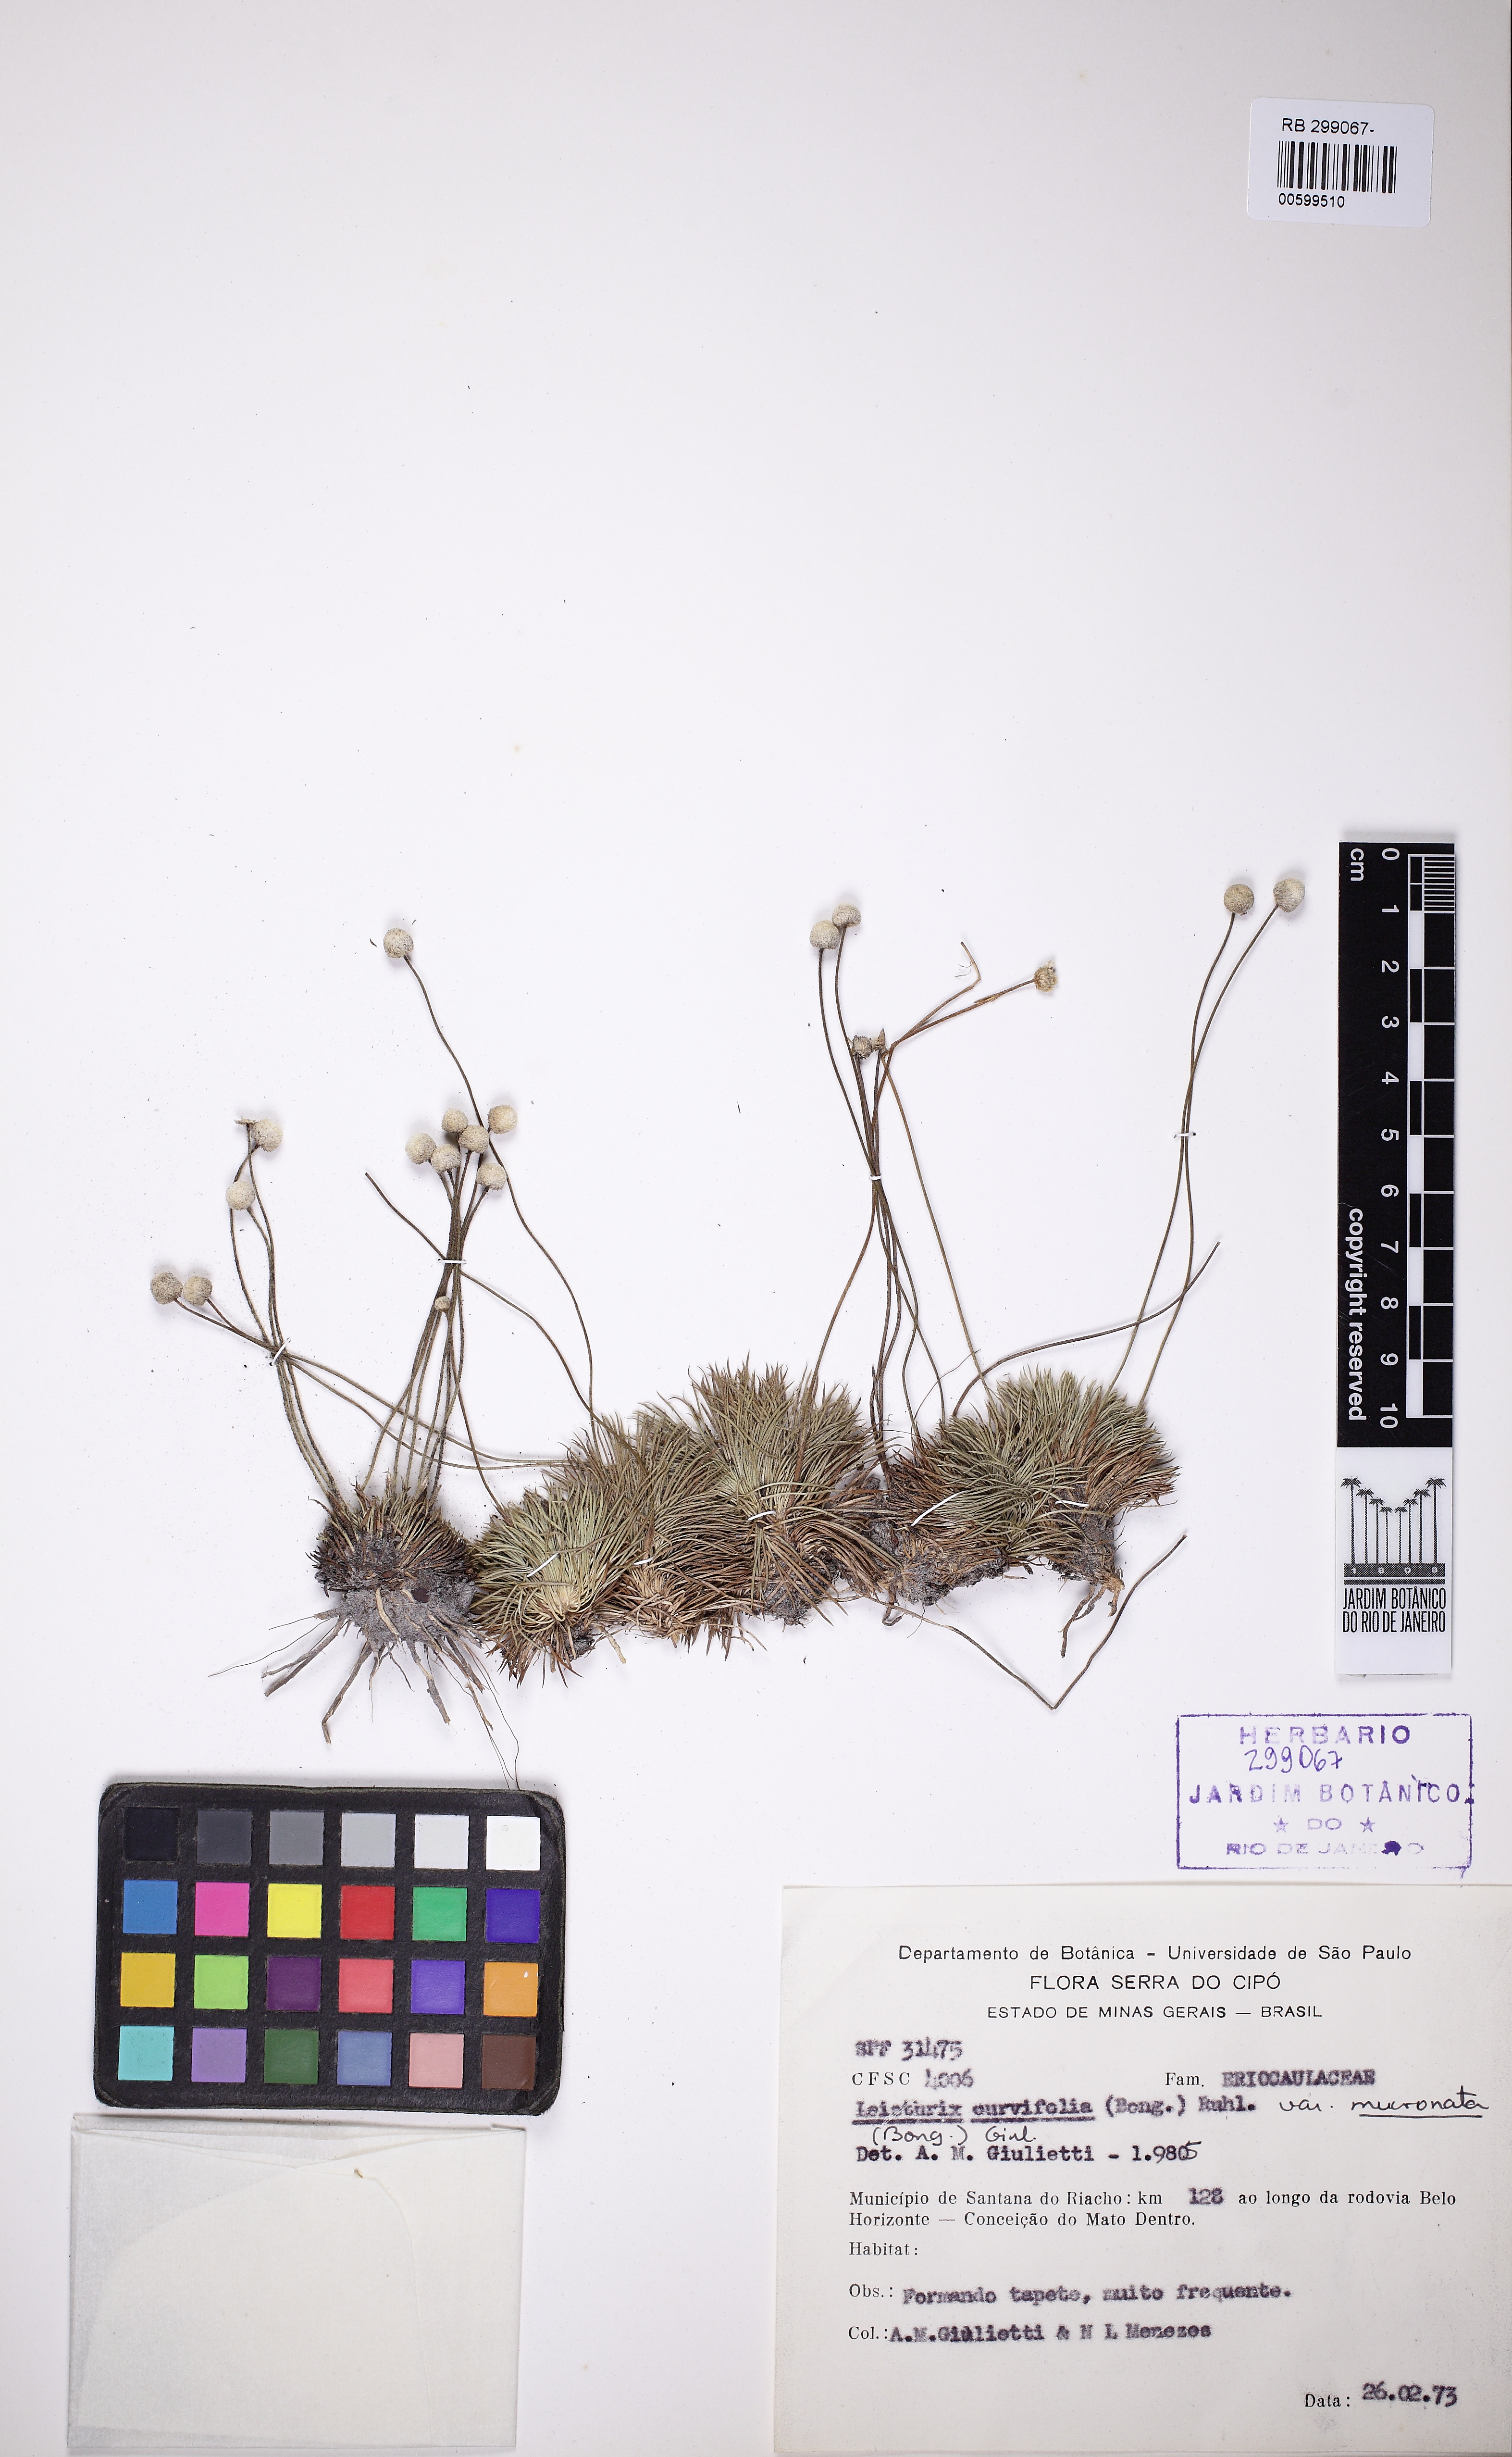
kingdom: Plantae
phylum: Tracheophyta
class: Liliopsida
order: Poales
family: Eriocaulaceae
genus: Paepalanthus
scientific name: Paepalanthus sphaerocephalus
